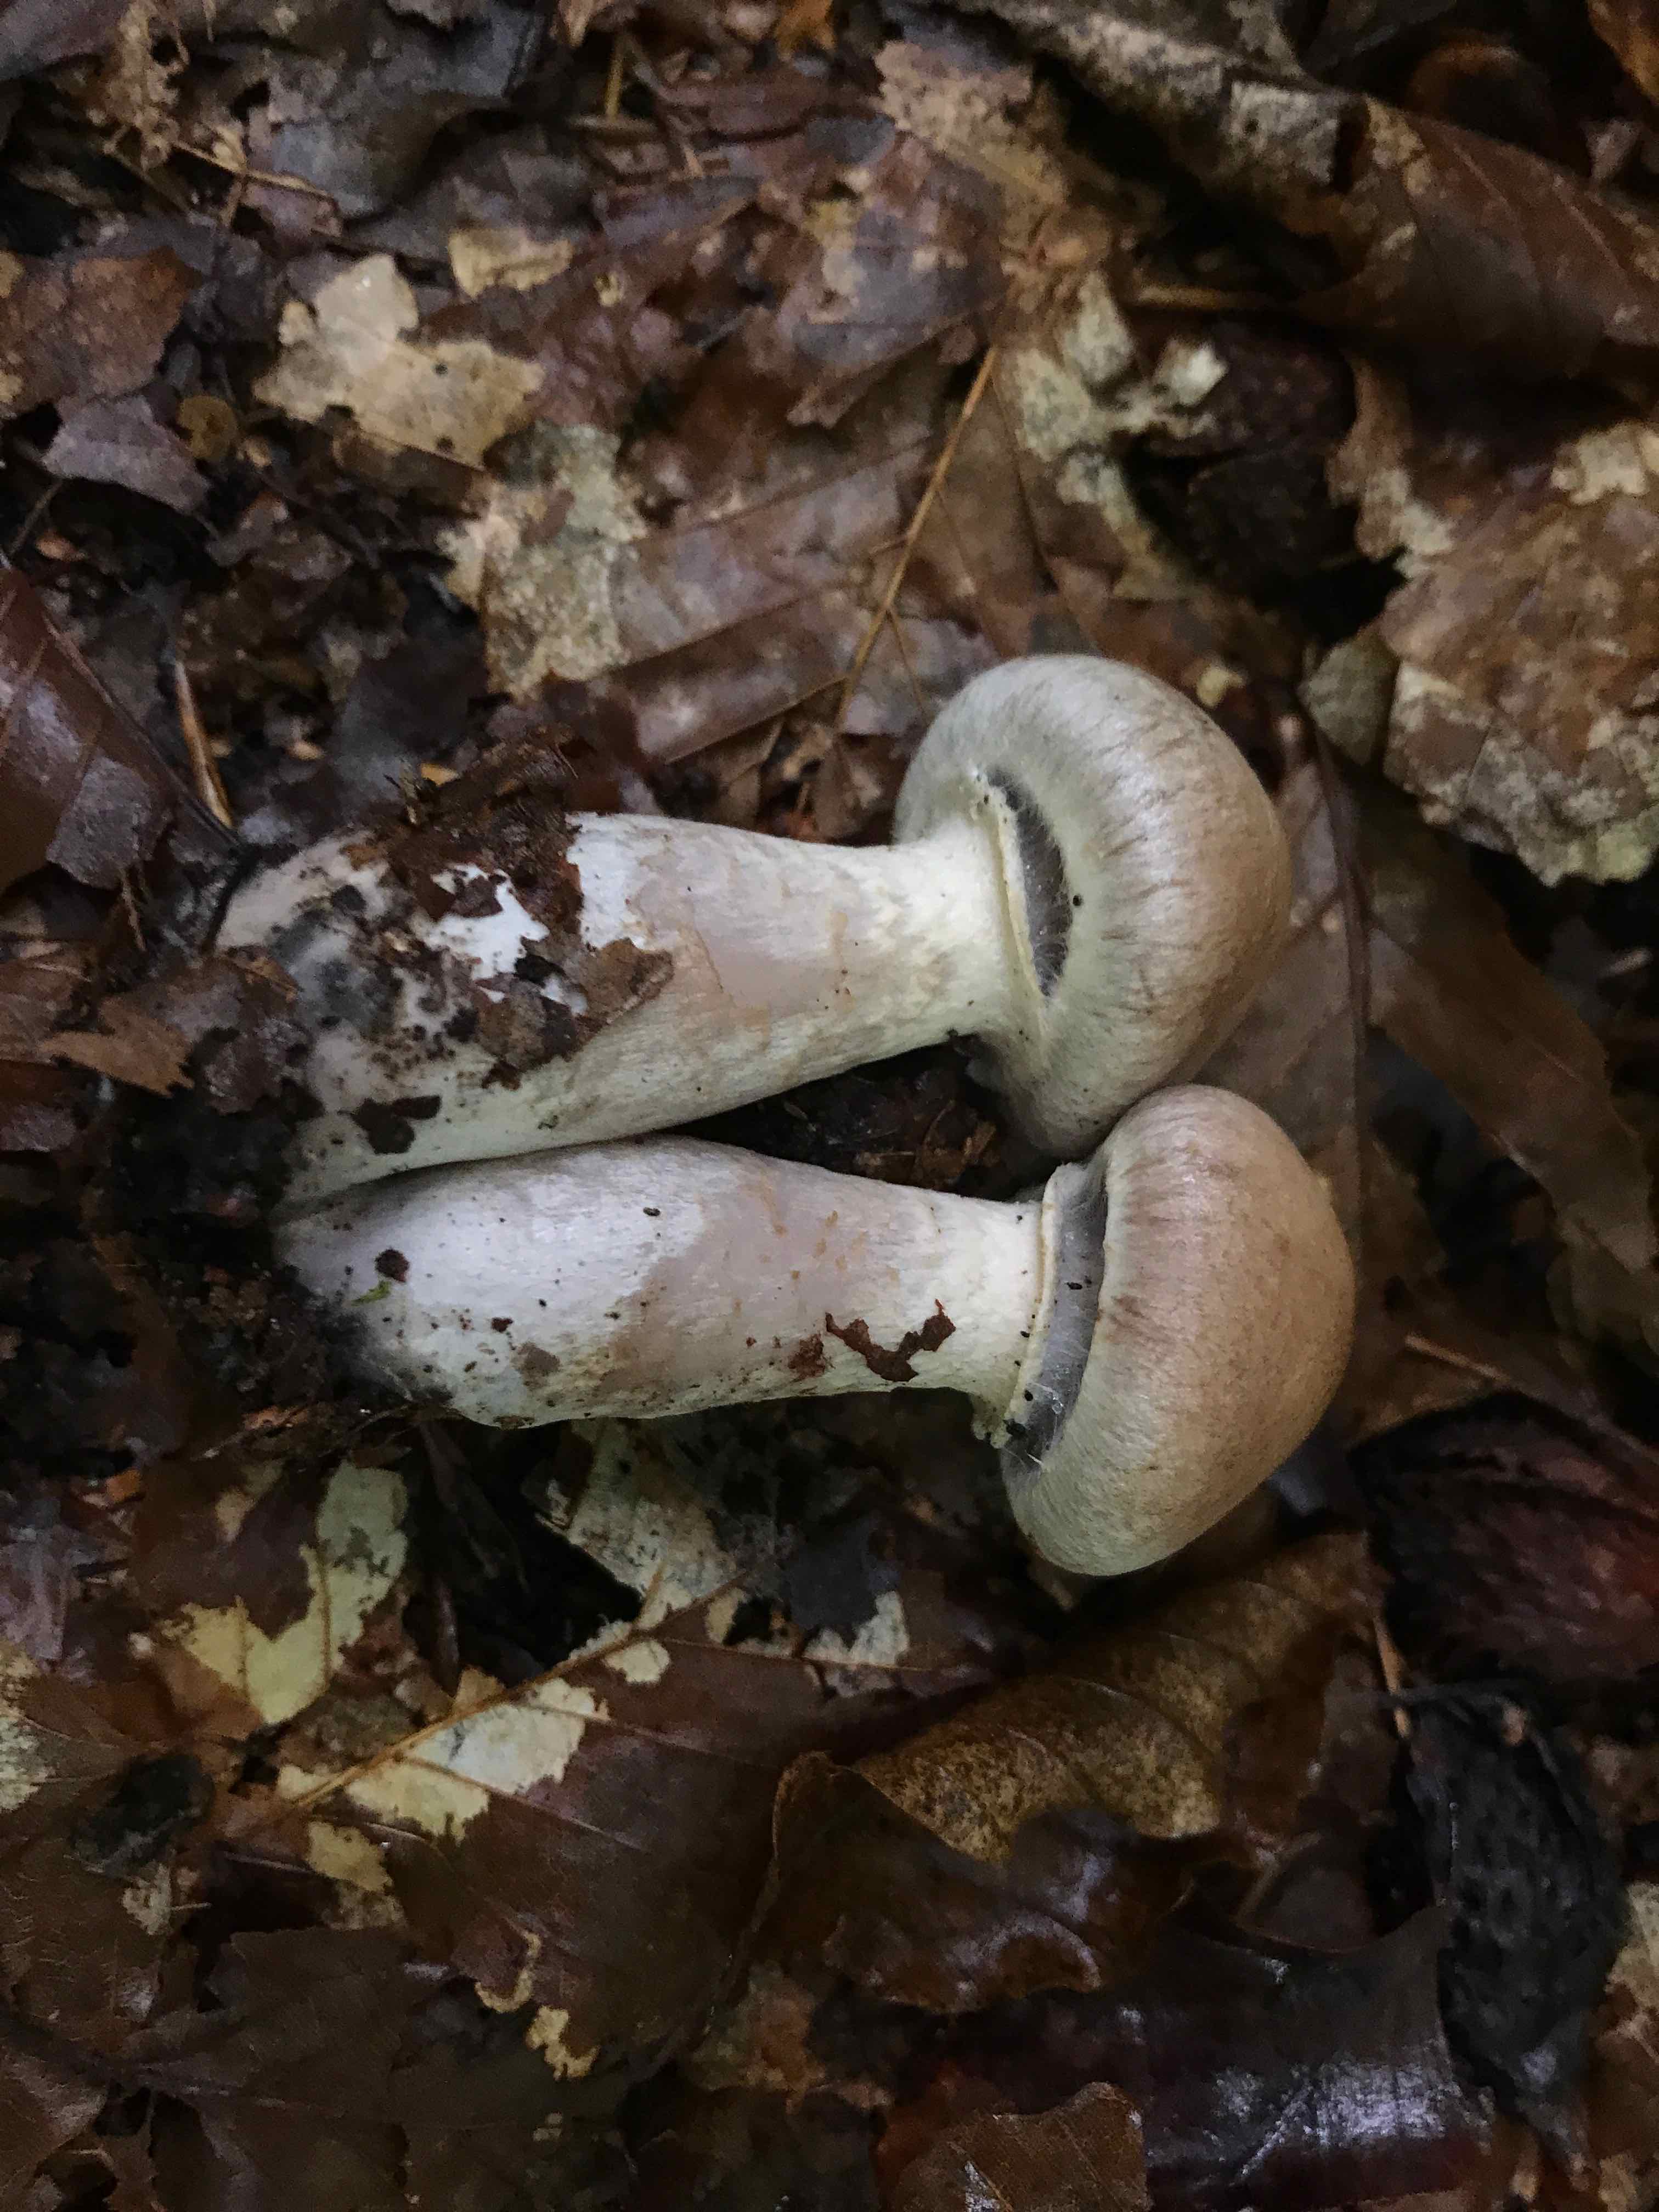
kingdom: Fungi
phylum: Basidiomycota
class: Agaricomycetes
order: Agaricales
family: Cortinariaceae
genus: Cortinarius
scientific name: Cortinarius torvus
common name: champignonagtig slørhat
